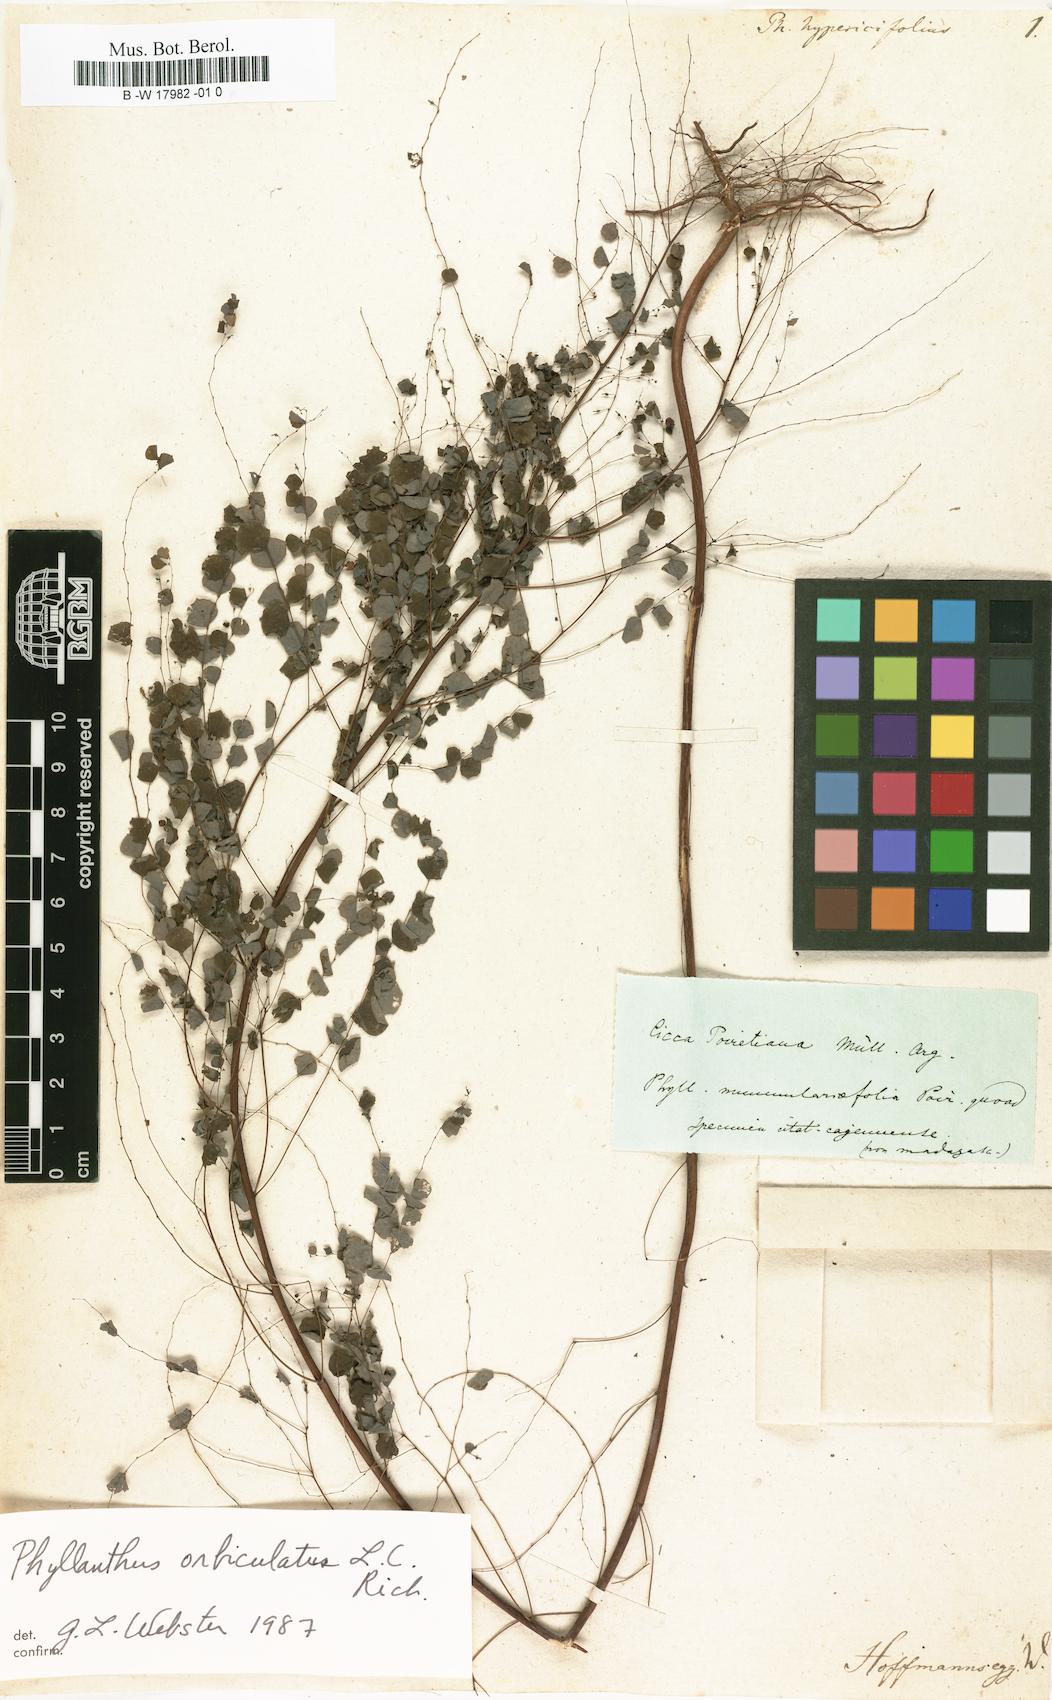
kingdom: Plantae
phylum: Tracheophyta
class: Magnoliopsida
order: Malpighiales
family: Phyllanthaceae
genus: Phyllanthus
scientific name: Phyllanthus
